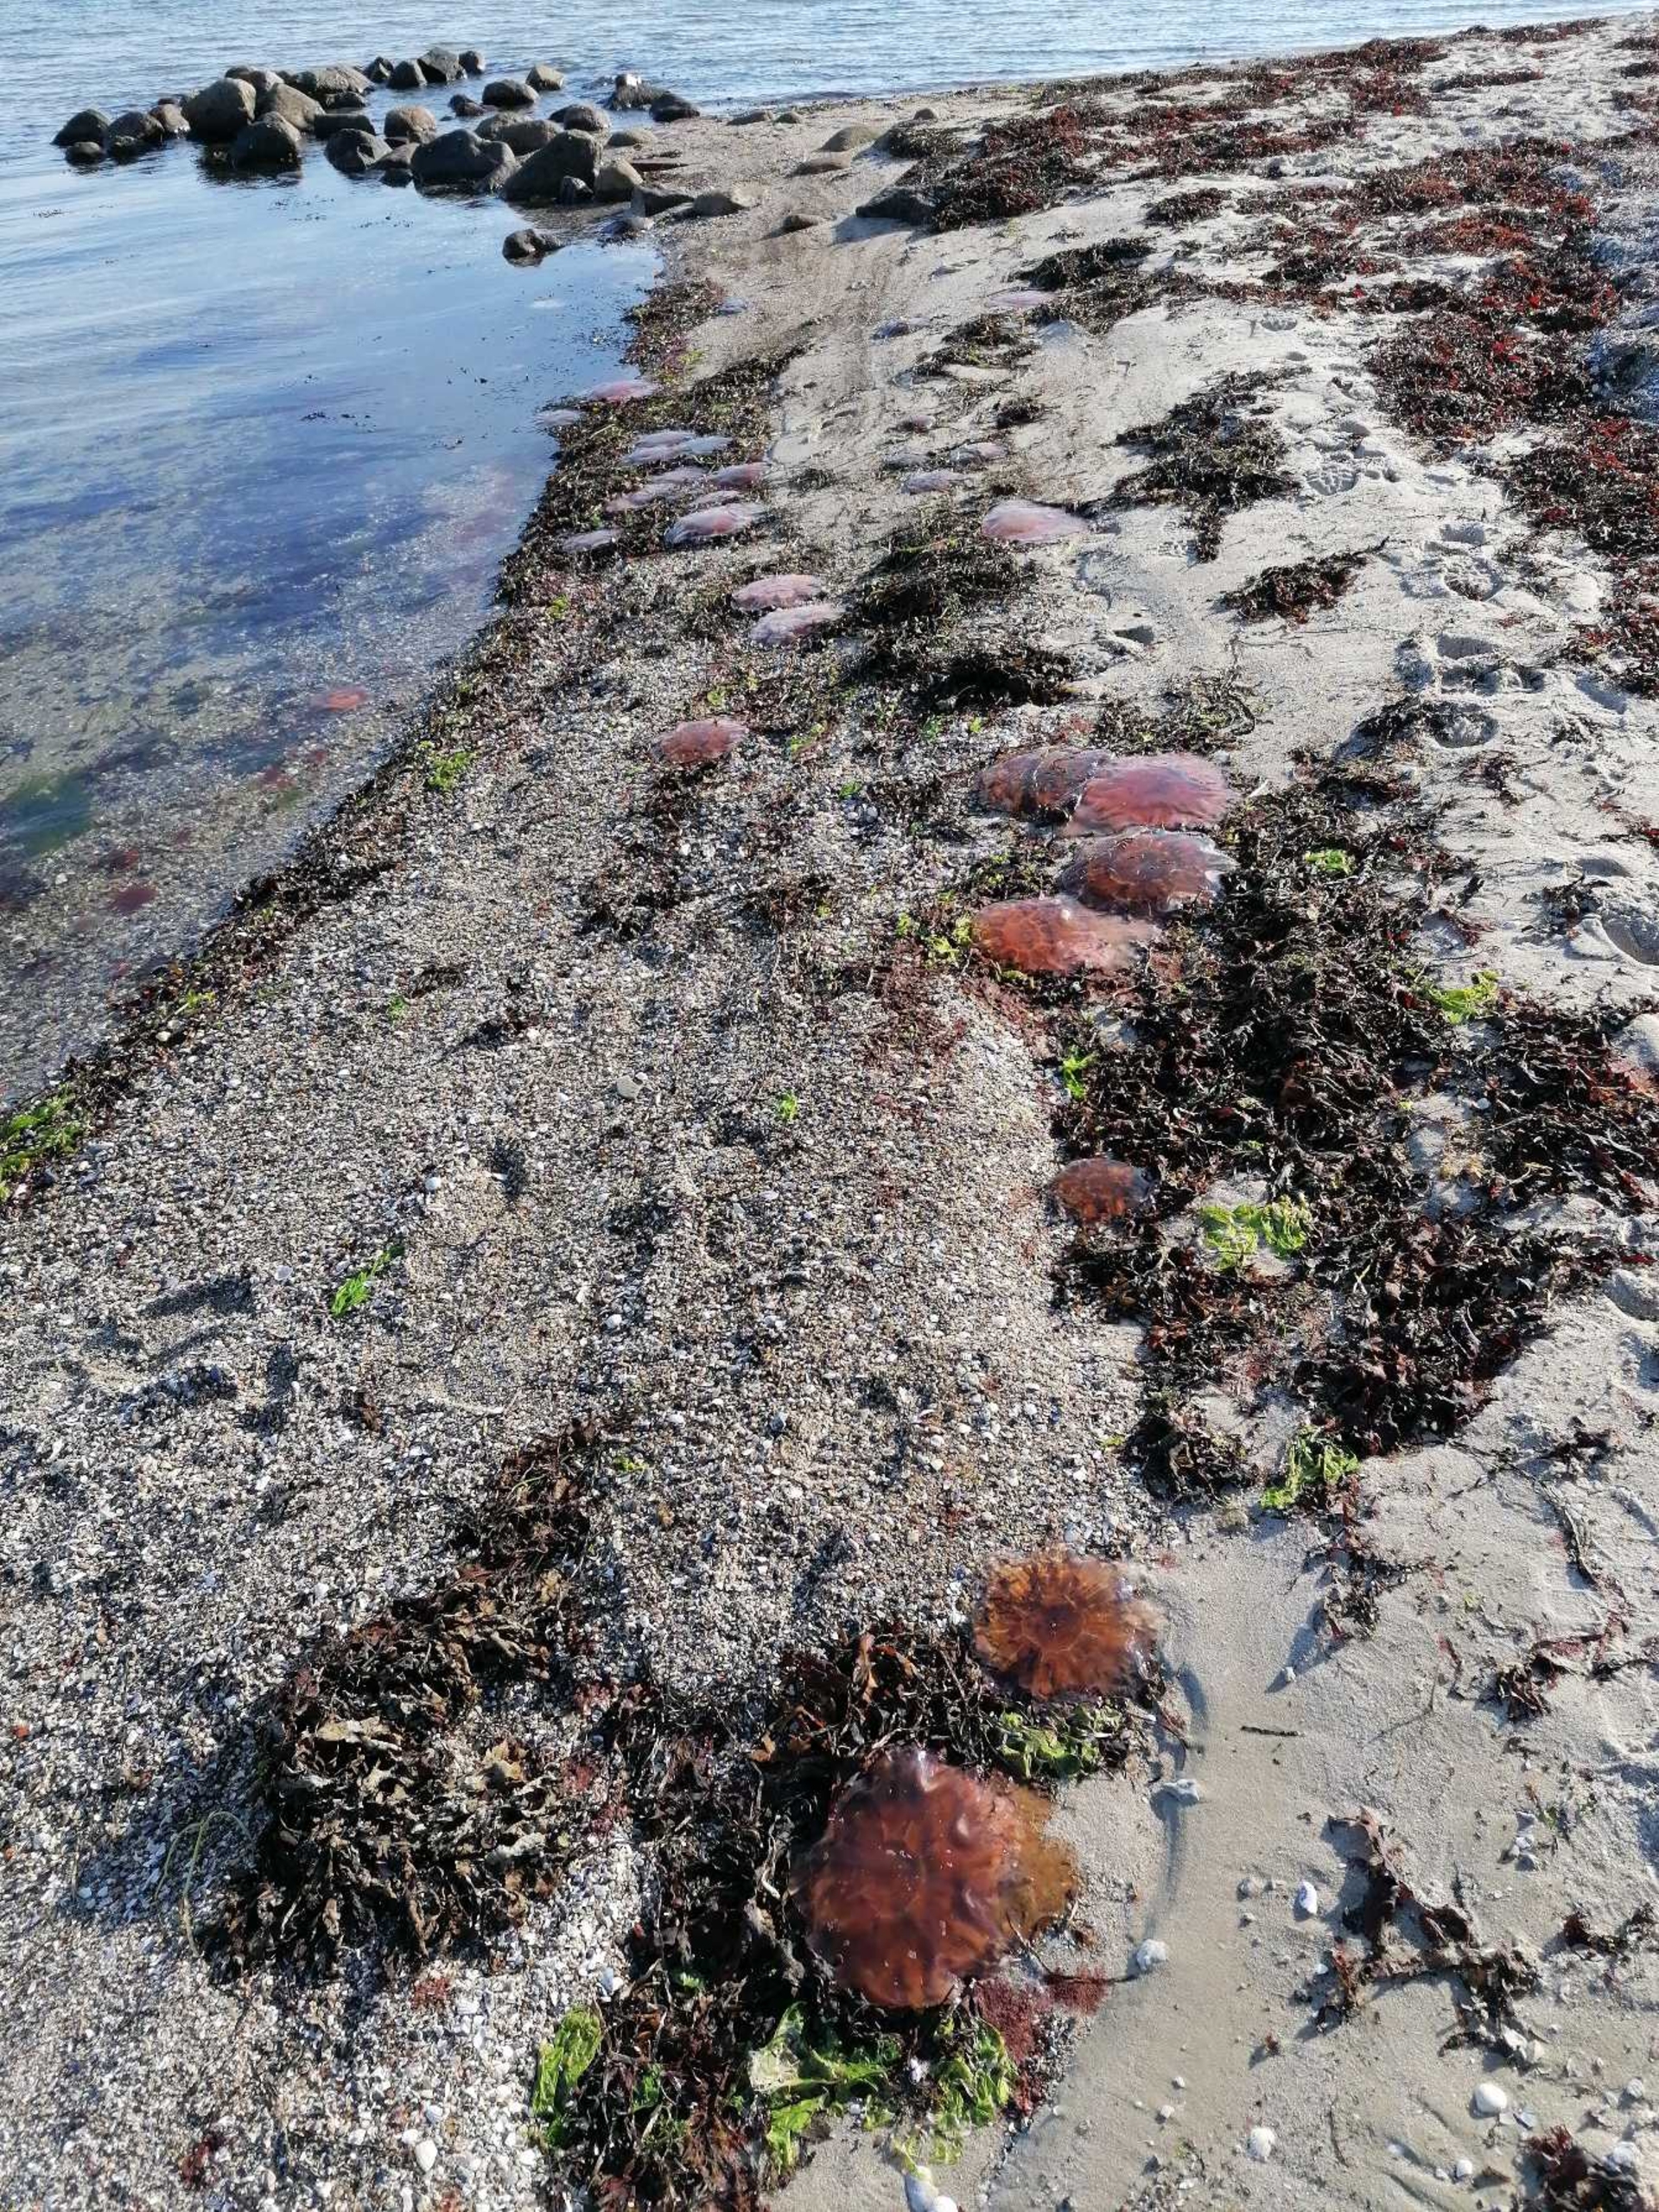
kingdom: Animalia
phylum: Cnidaria
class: Scyphozoa
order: Semaeostomeae
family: Cyaneidae
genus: Cyanea
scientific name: Cyanea capillata
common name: Rød brandmand
